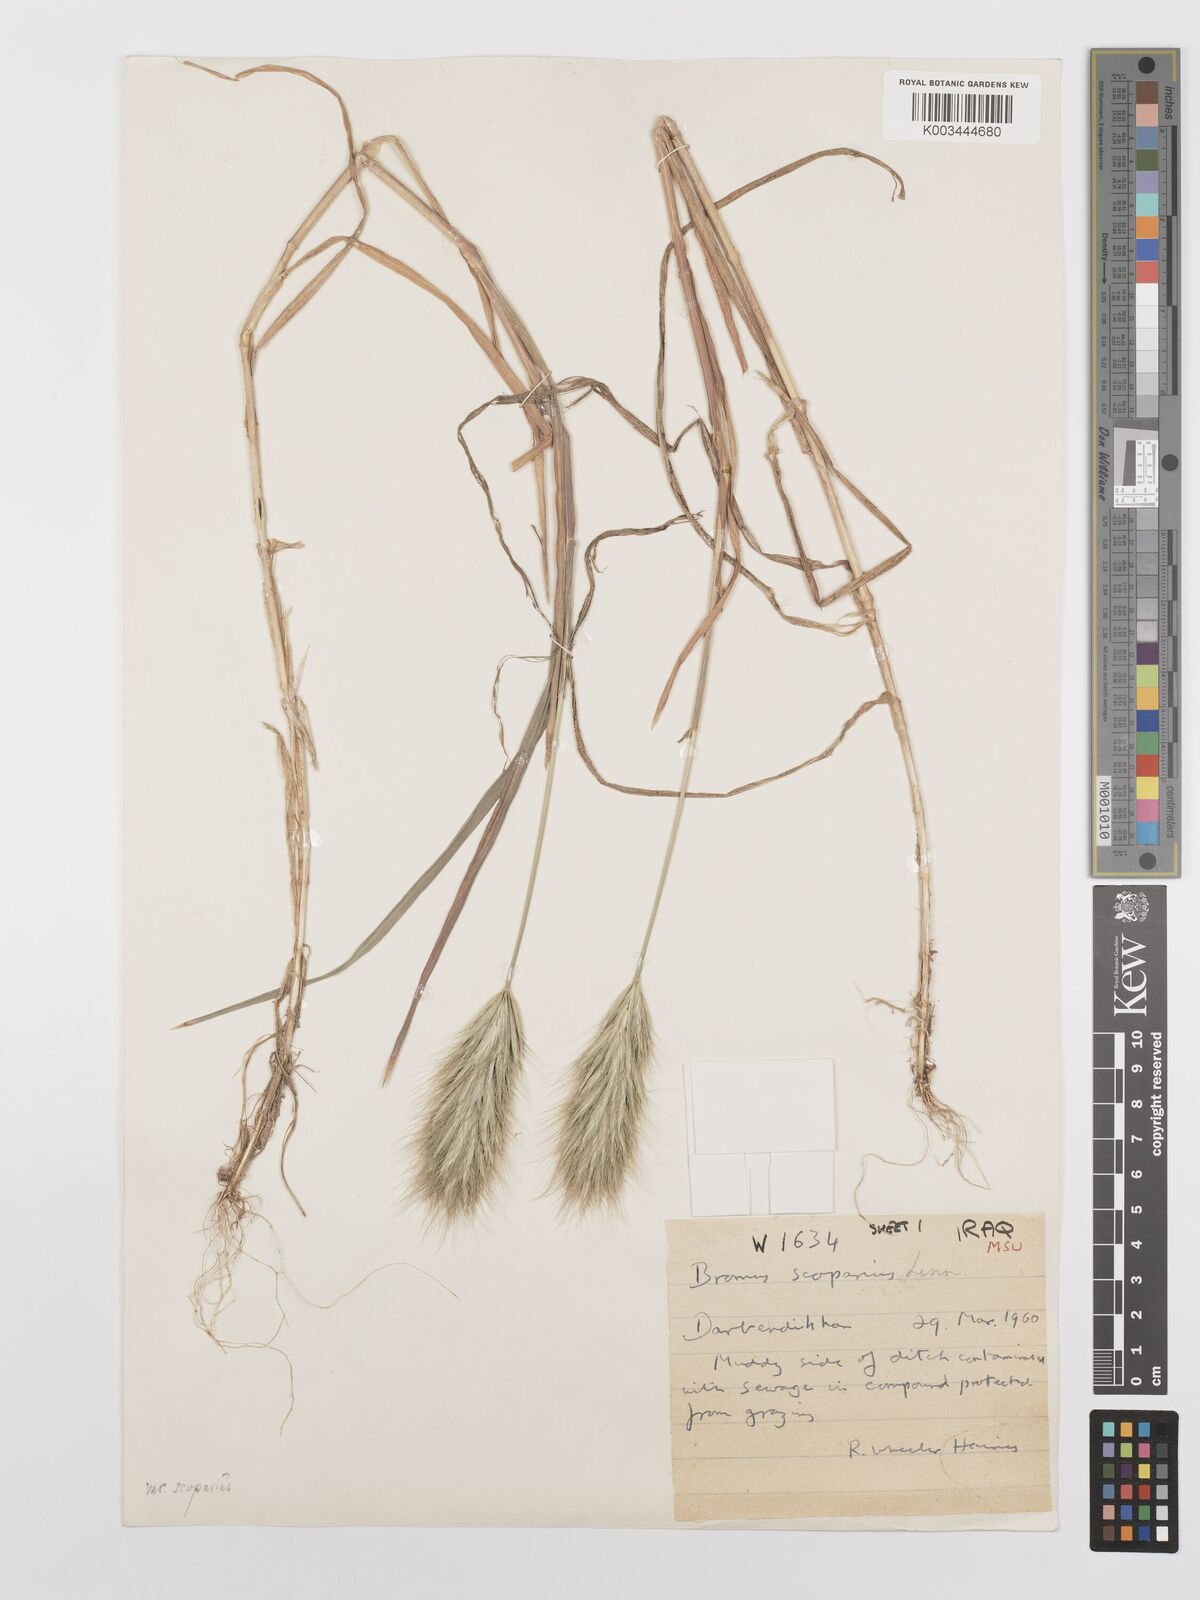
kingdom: Plantae
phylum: Tracheophyta
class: Liliopsida
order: Poales
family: Poaceae
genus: Bromus
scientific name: Bromus scoparius
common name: Broom brome
